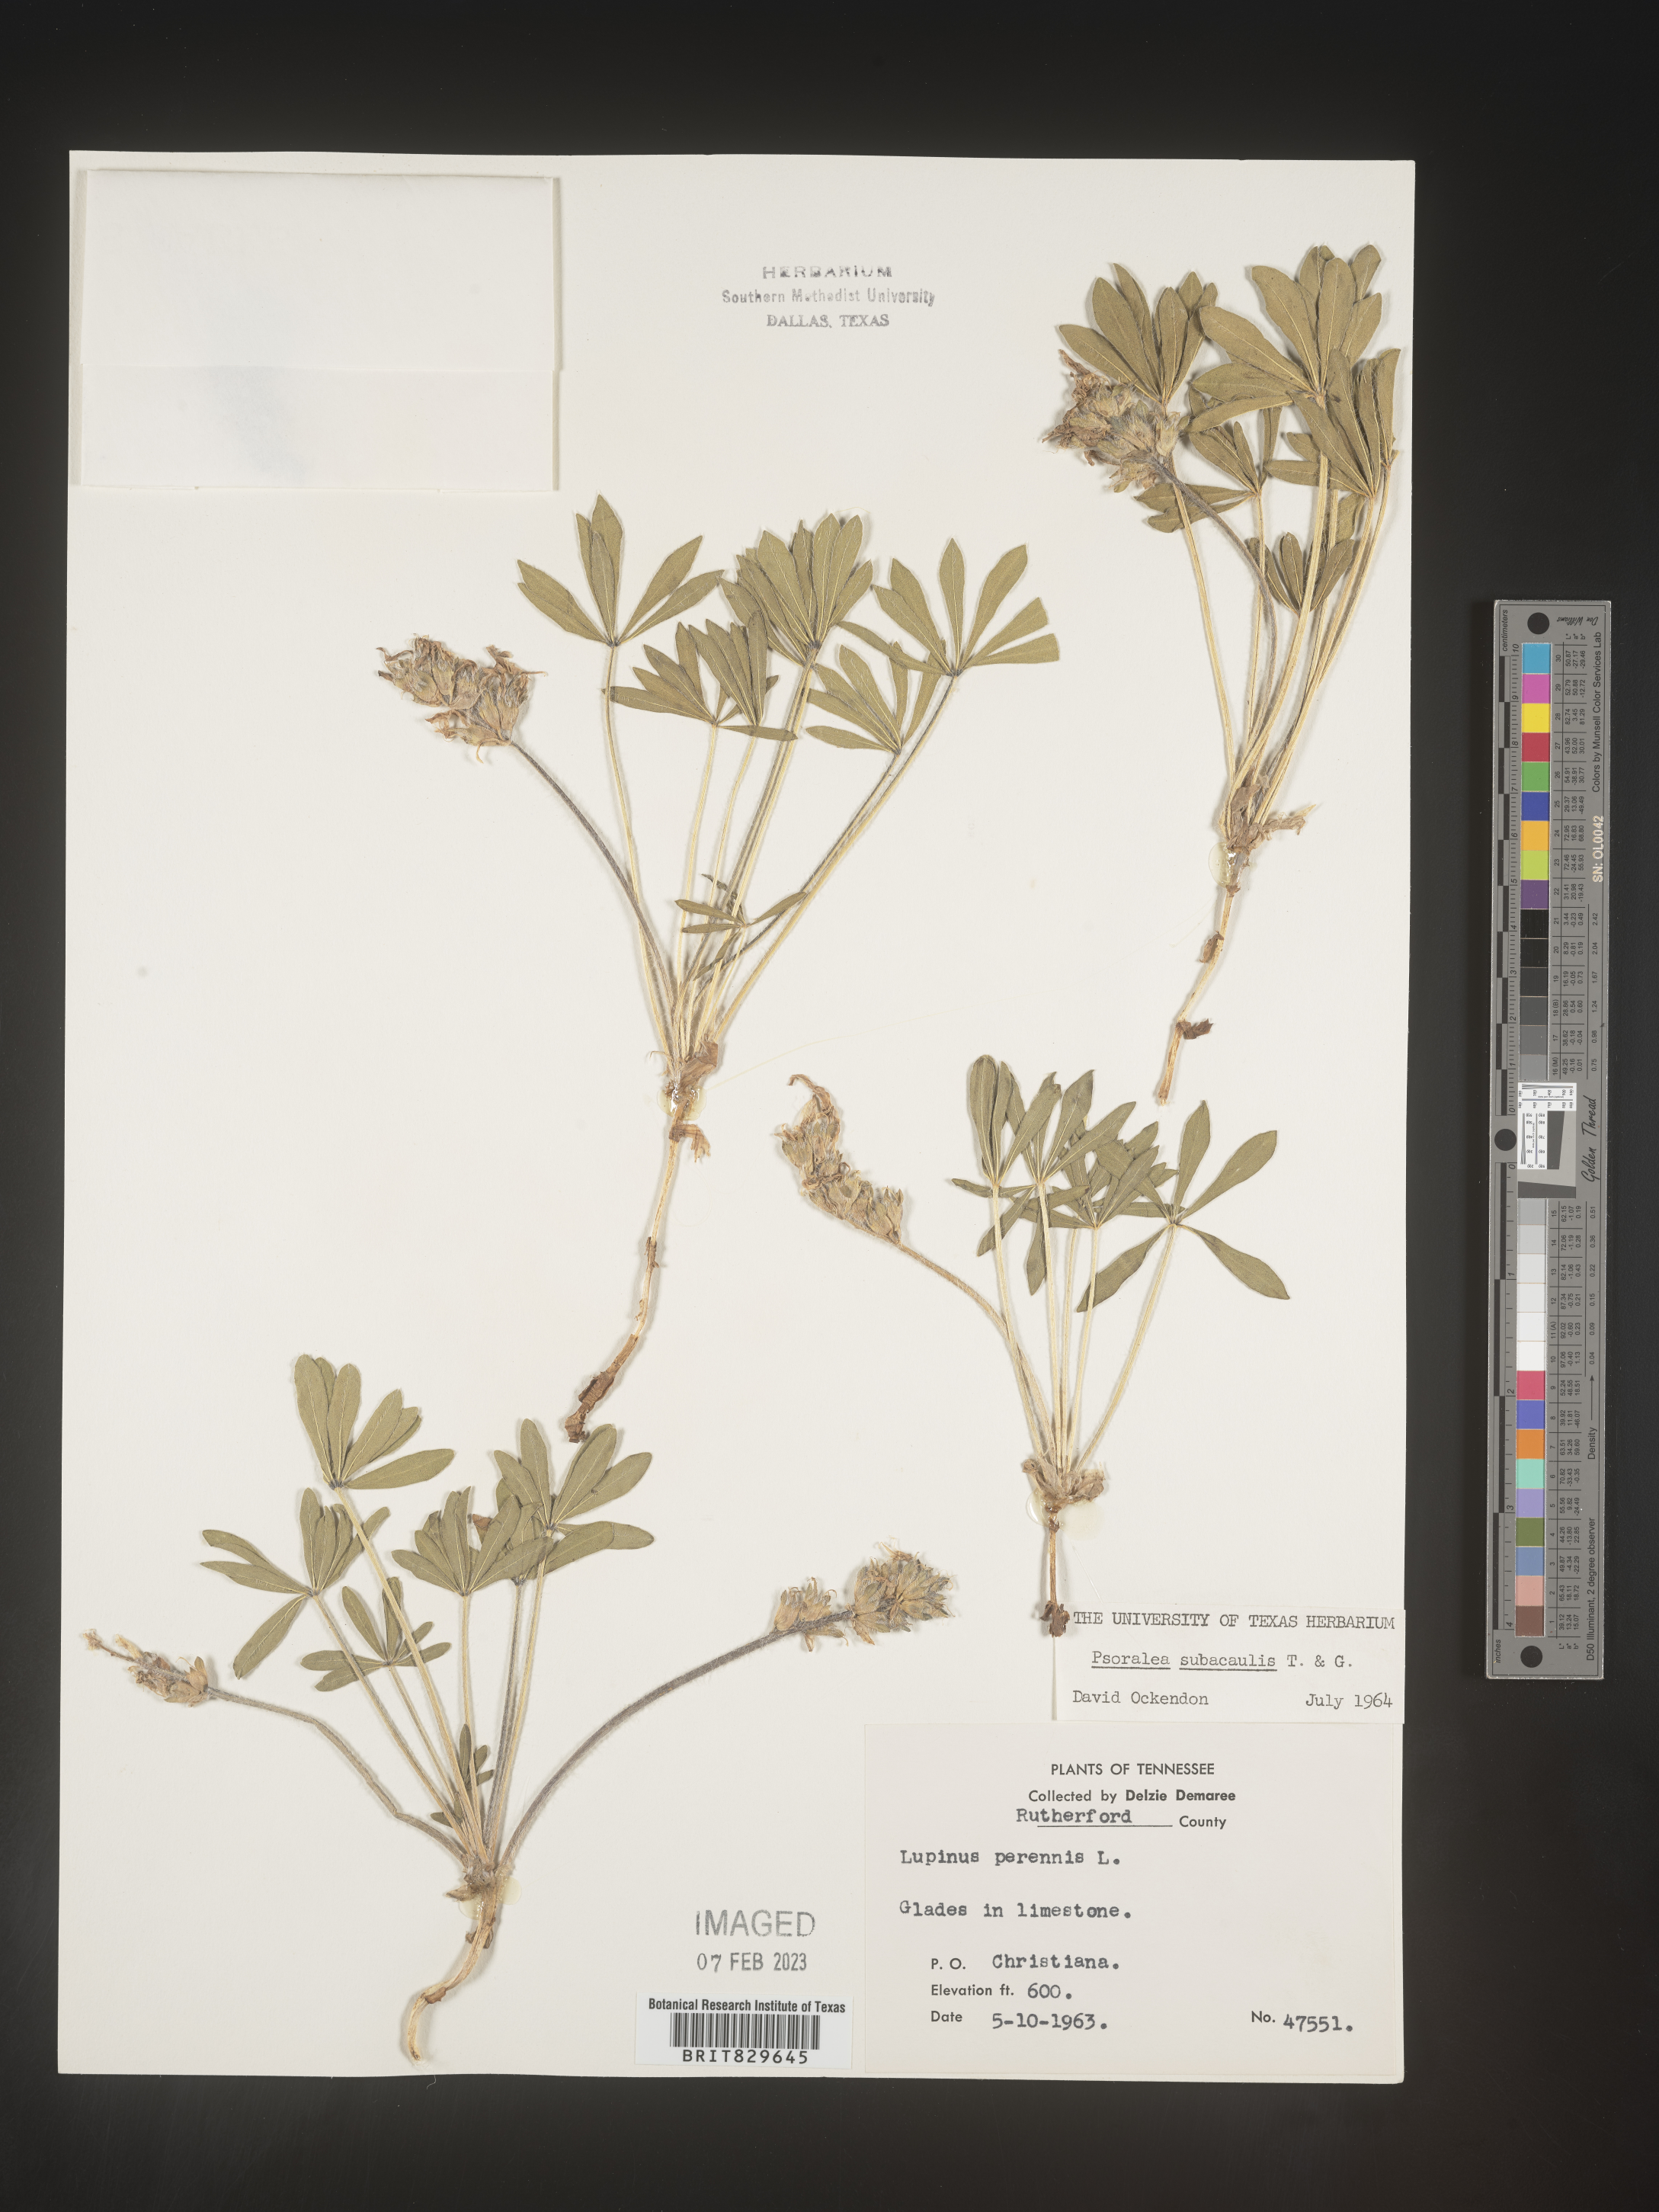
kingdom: Plantae
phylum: Tracheophyta
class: Magnoliopsida
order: Fabales
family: Fabaceae
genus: Psoralea
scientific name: Psoralea
